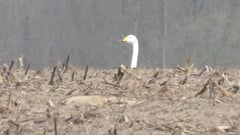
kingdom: Animalia
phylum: Chordata
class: Aves
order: Anseriformes
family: Anatidae
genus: Cygnus
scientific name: Cygnus cygnus
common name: Whooper swan
